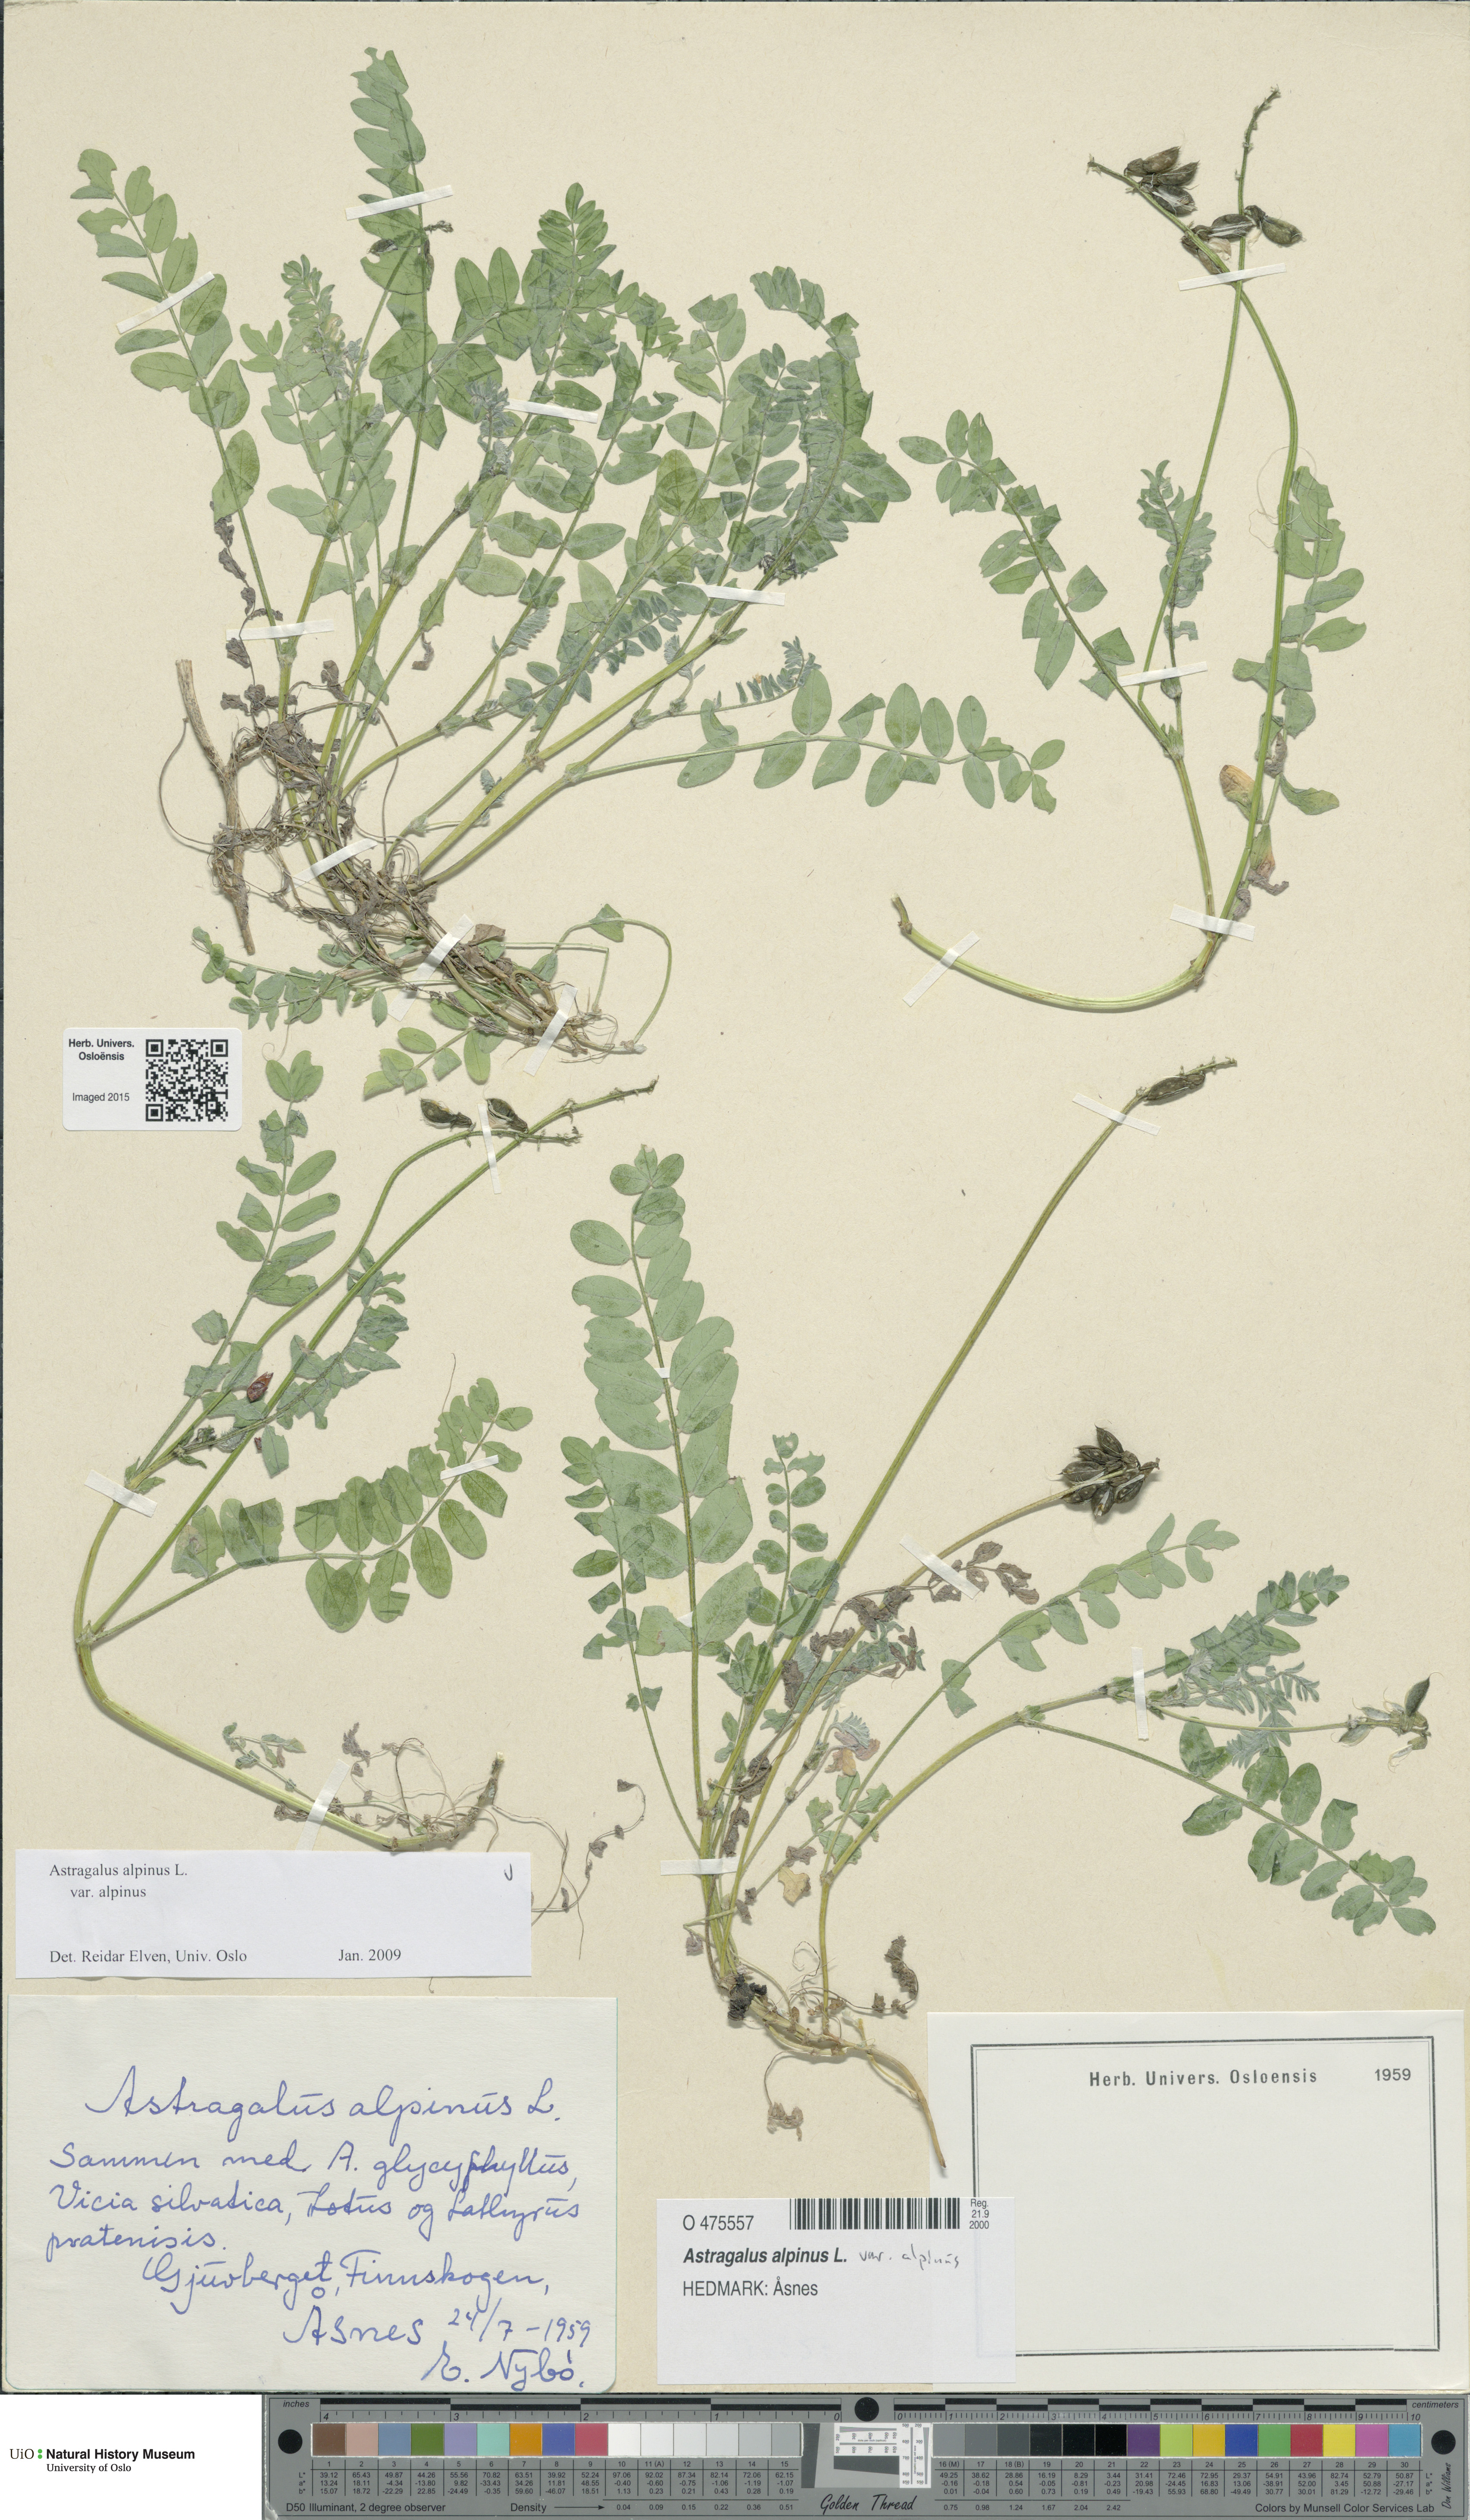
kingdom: Plantae
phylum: Tracheophyta
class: Magnoliopsida
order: Fabales
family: Fabaceae
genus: Astragalus
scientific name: Astragalus alpinus
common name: Alpine milk-vetch
